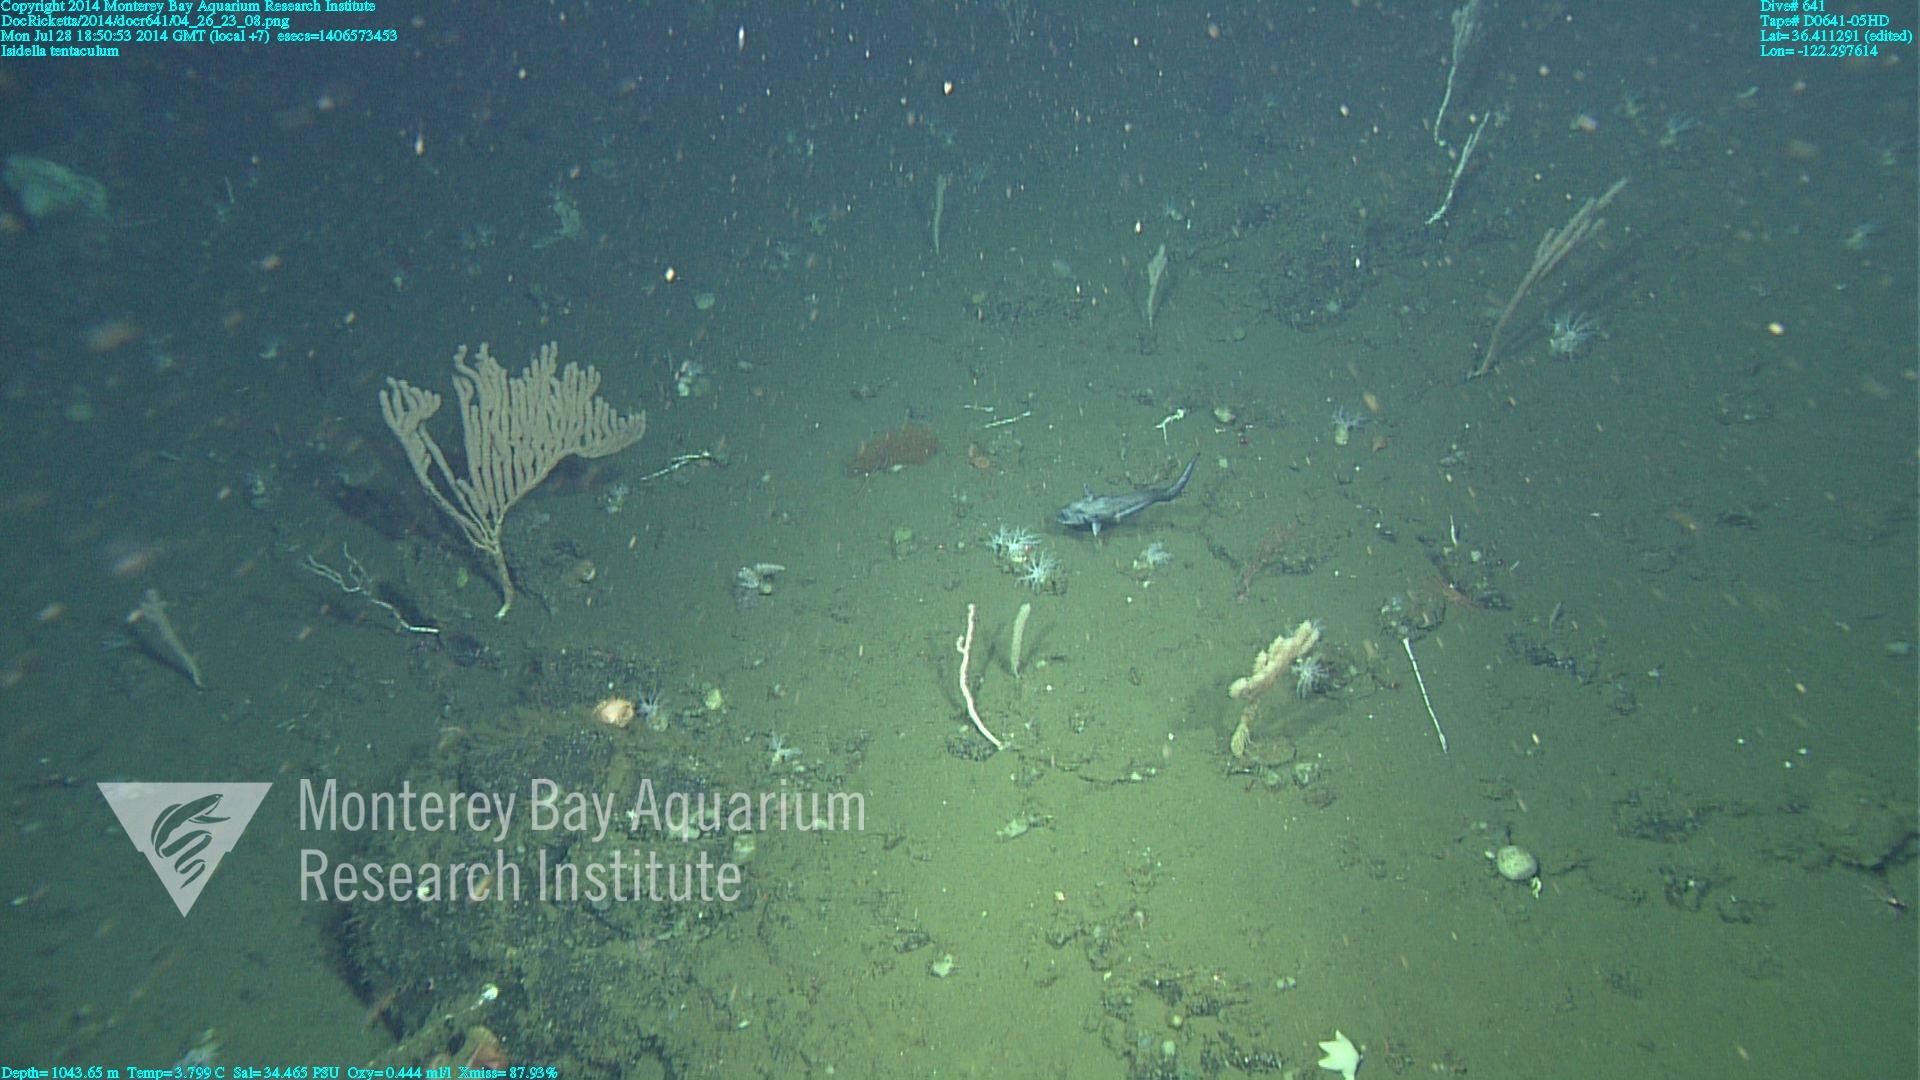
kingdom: Animalia
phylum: Cnidaria
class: Anthozoa
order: Scleralcyonacea
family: Keratoisididae
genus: Isidella
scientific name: Isidella tentaculum
